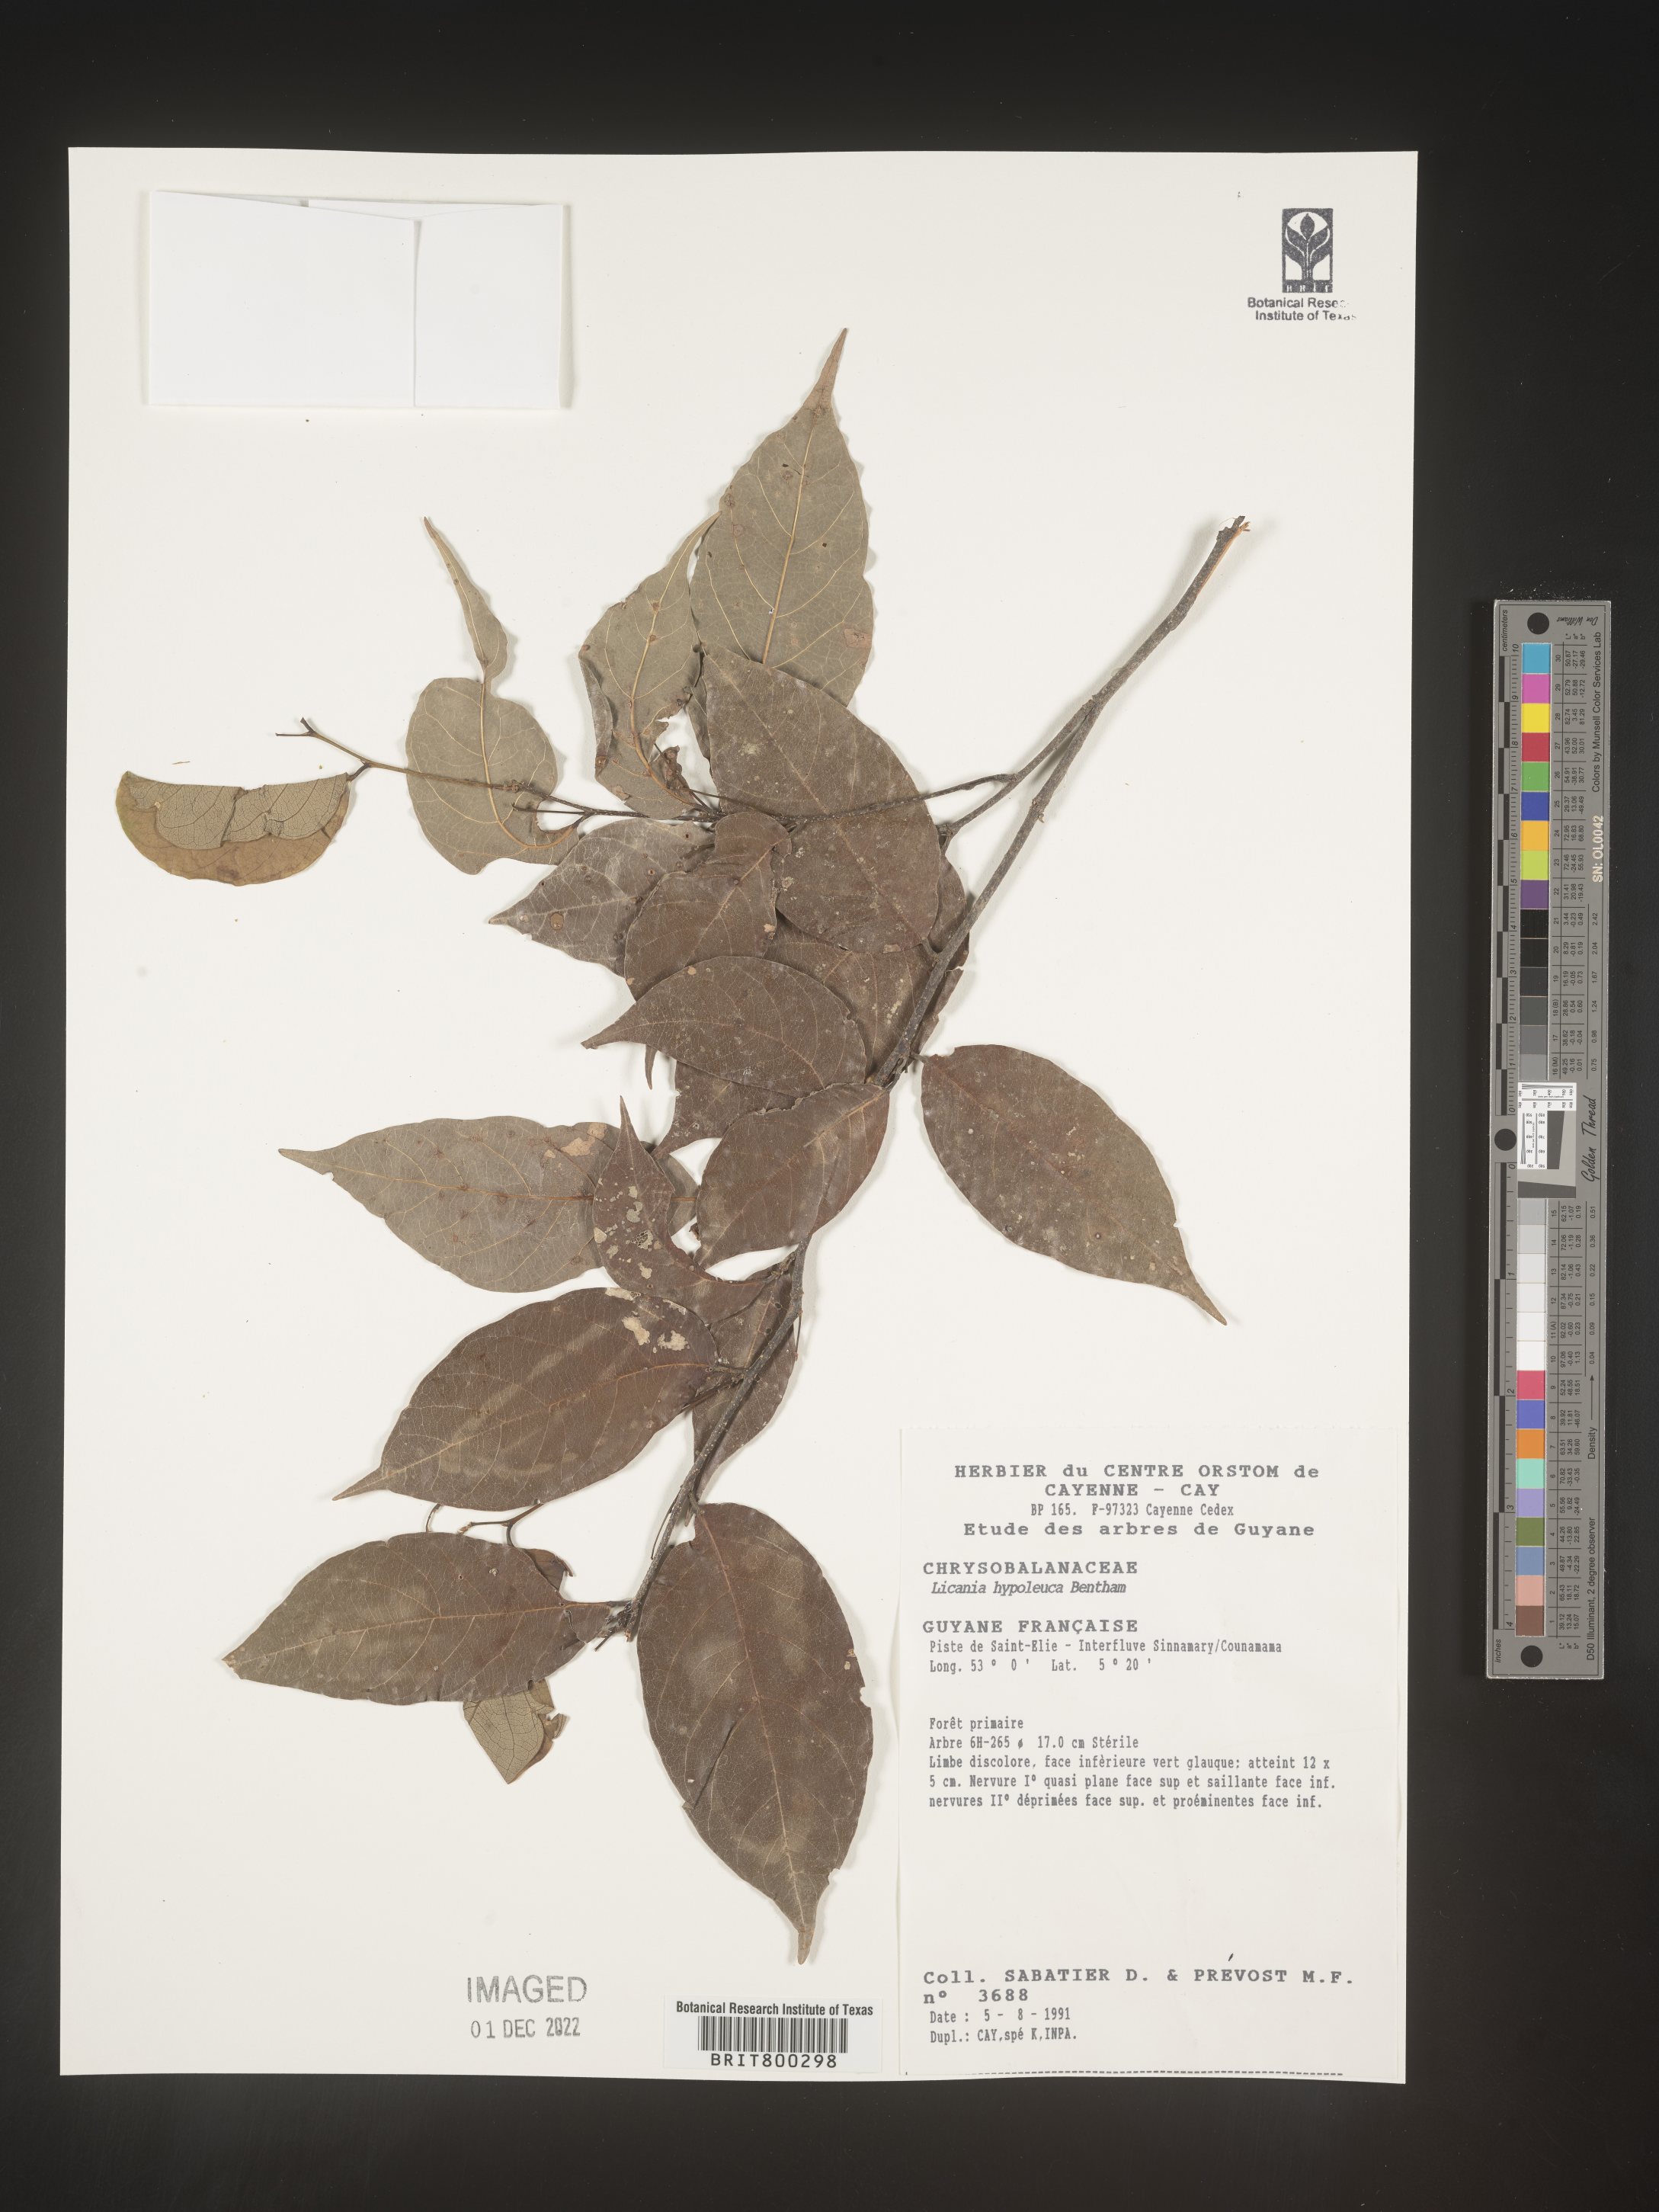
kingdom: Plantae
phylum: Tracheophyta
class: Magnoliopsida
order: Malpighiales
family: Chrysobalanaceae
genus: Geobalanus
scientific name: Geobalanus oblongifolius
